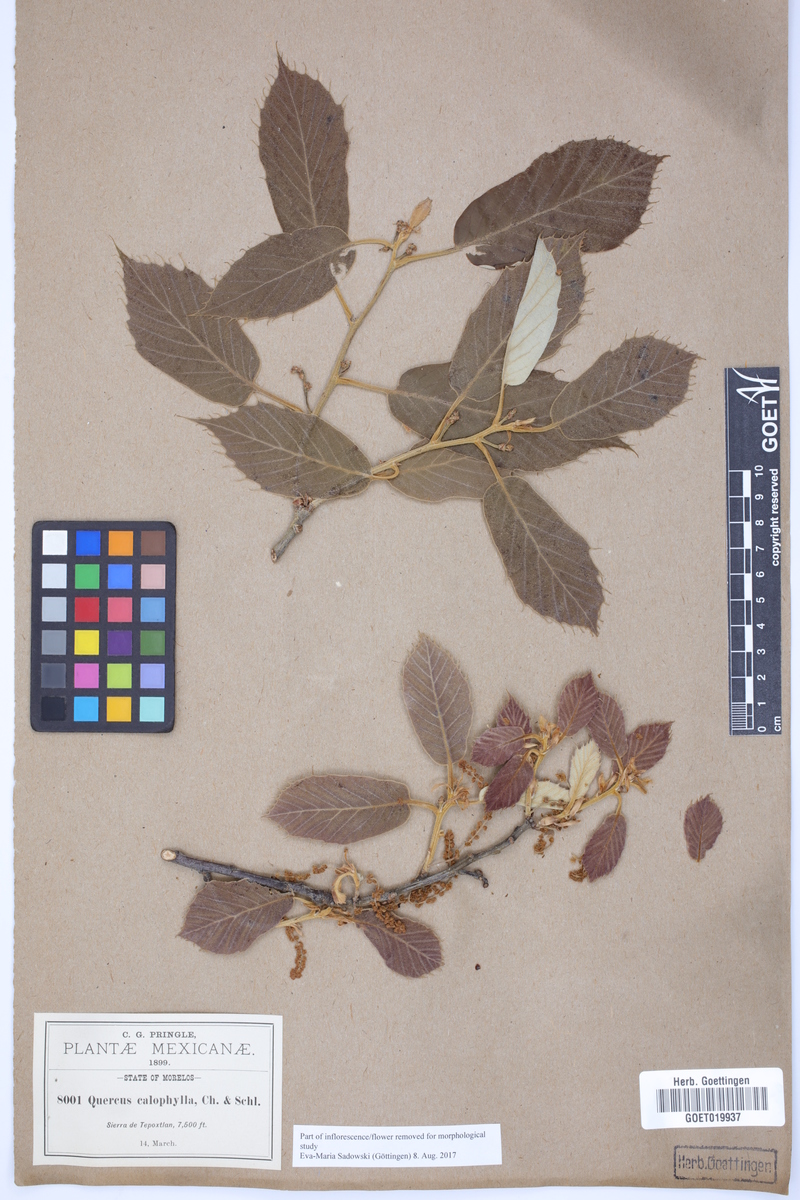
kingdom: Plantae
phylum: Tracheophyta
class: Magnoliopsida
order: Fagales
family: Fagaceae
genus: Quercus
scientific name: Quercus calophylla
